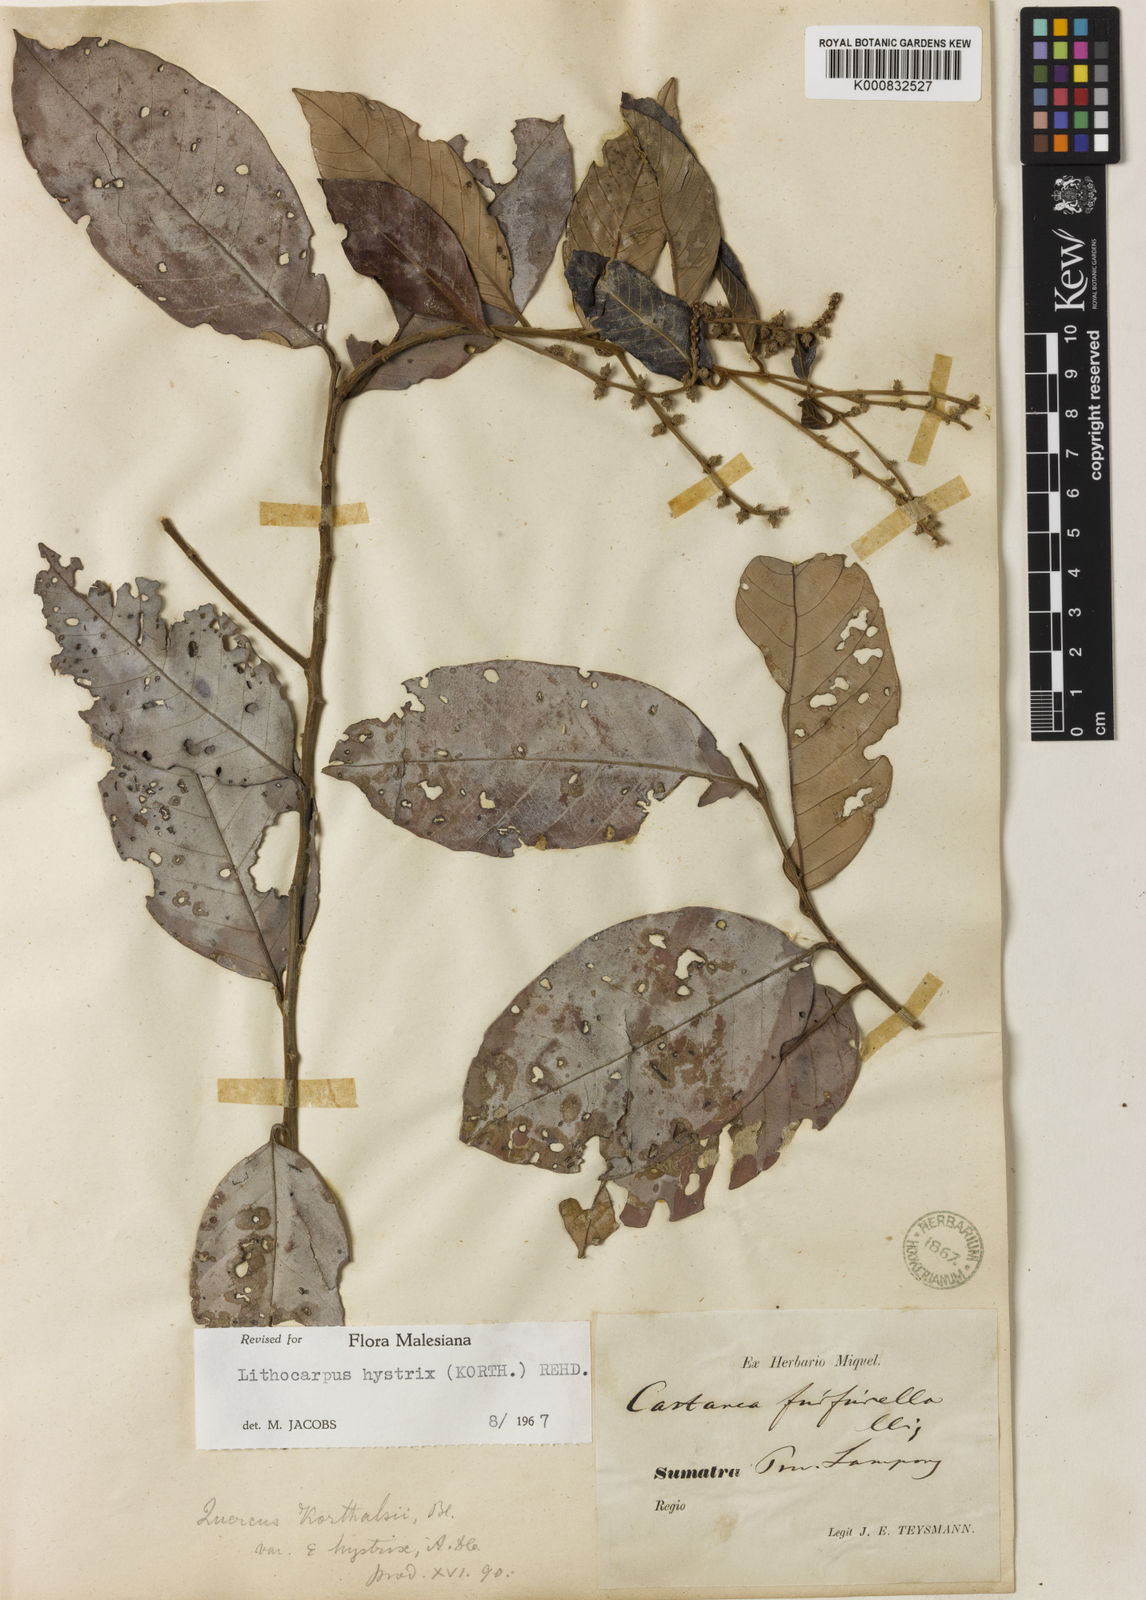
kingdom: Plantae
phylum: Tracheophyta
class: Magnoliopsida
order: Fagales
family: Fagaceae
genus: Lithocarpus
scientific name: Lithocarpus hystrix
